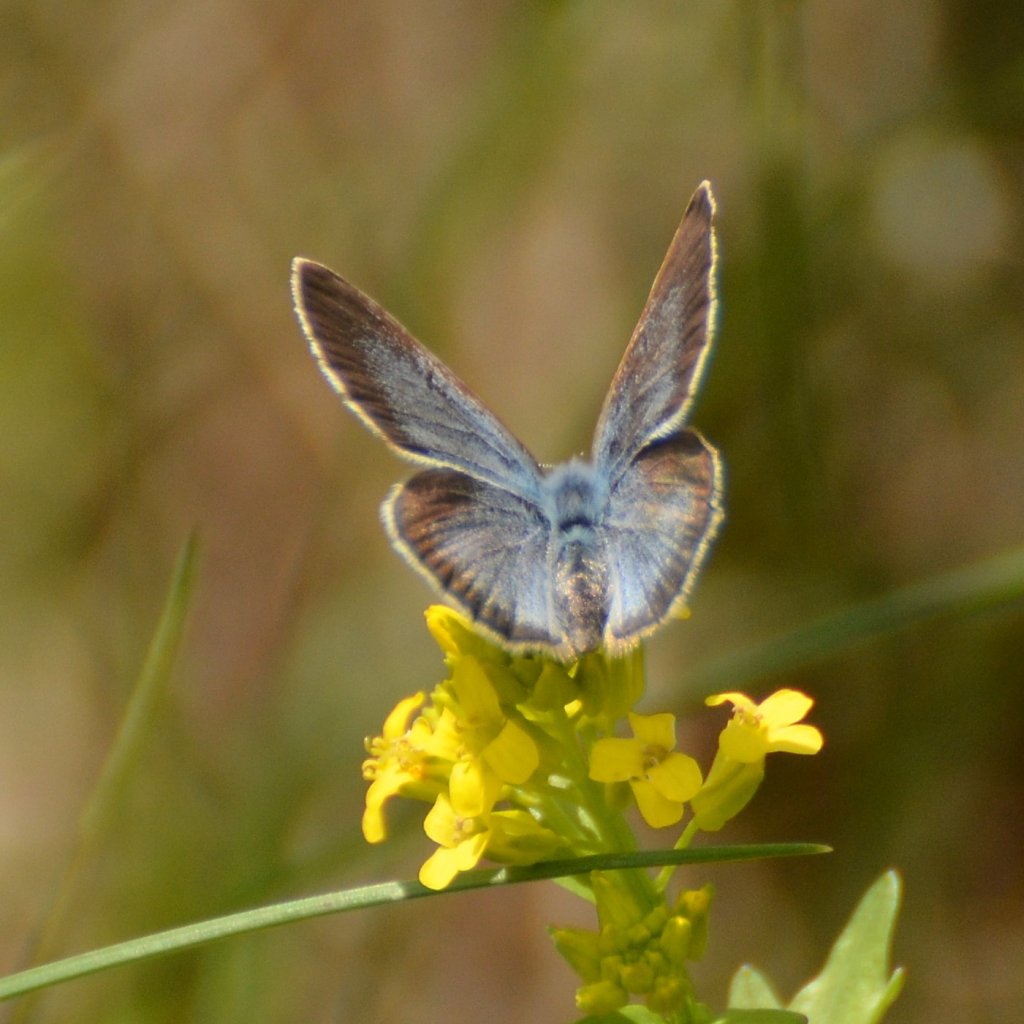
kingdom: Animalia
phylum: Arthropoda
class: Insecta
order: Lepidoptera
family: Lycaenidae
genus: Glaucopsyche
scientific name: Glaucopsyche lygdamus
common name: Silvery Blue
